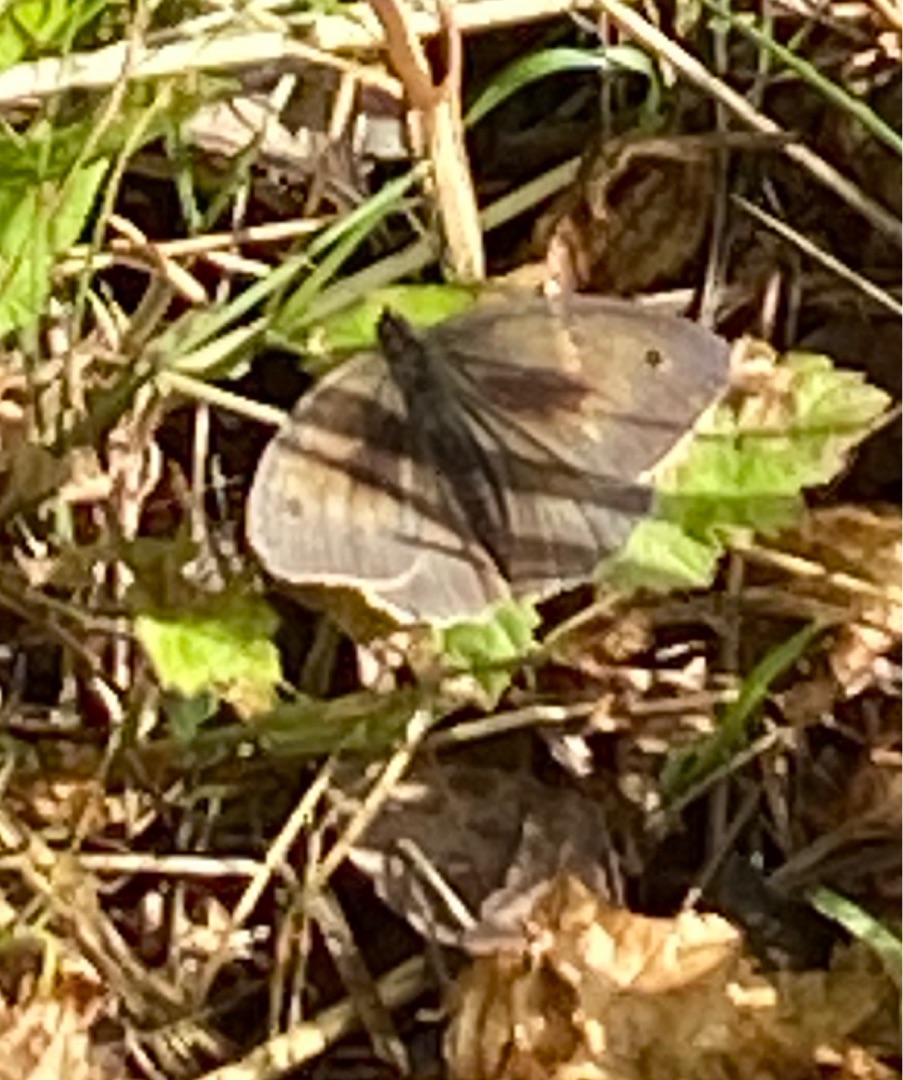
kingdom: Animalia
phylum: Arthropoda
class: Insecta
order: Lepidoptera
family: Nymphalidae
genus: Maniola
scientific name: Maniola jurtina
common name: Græsrandøje
